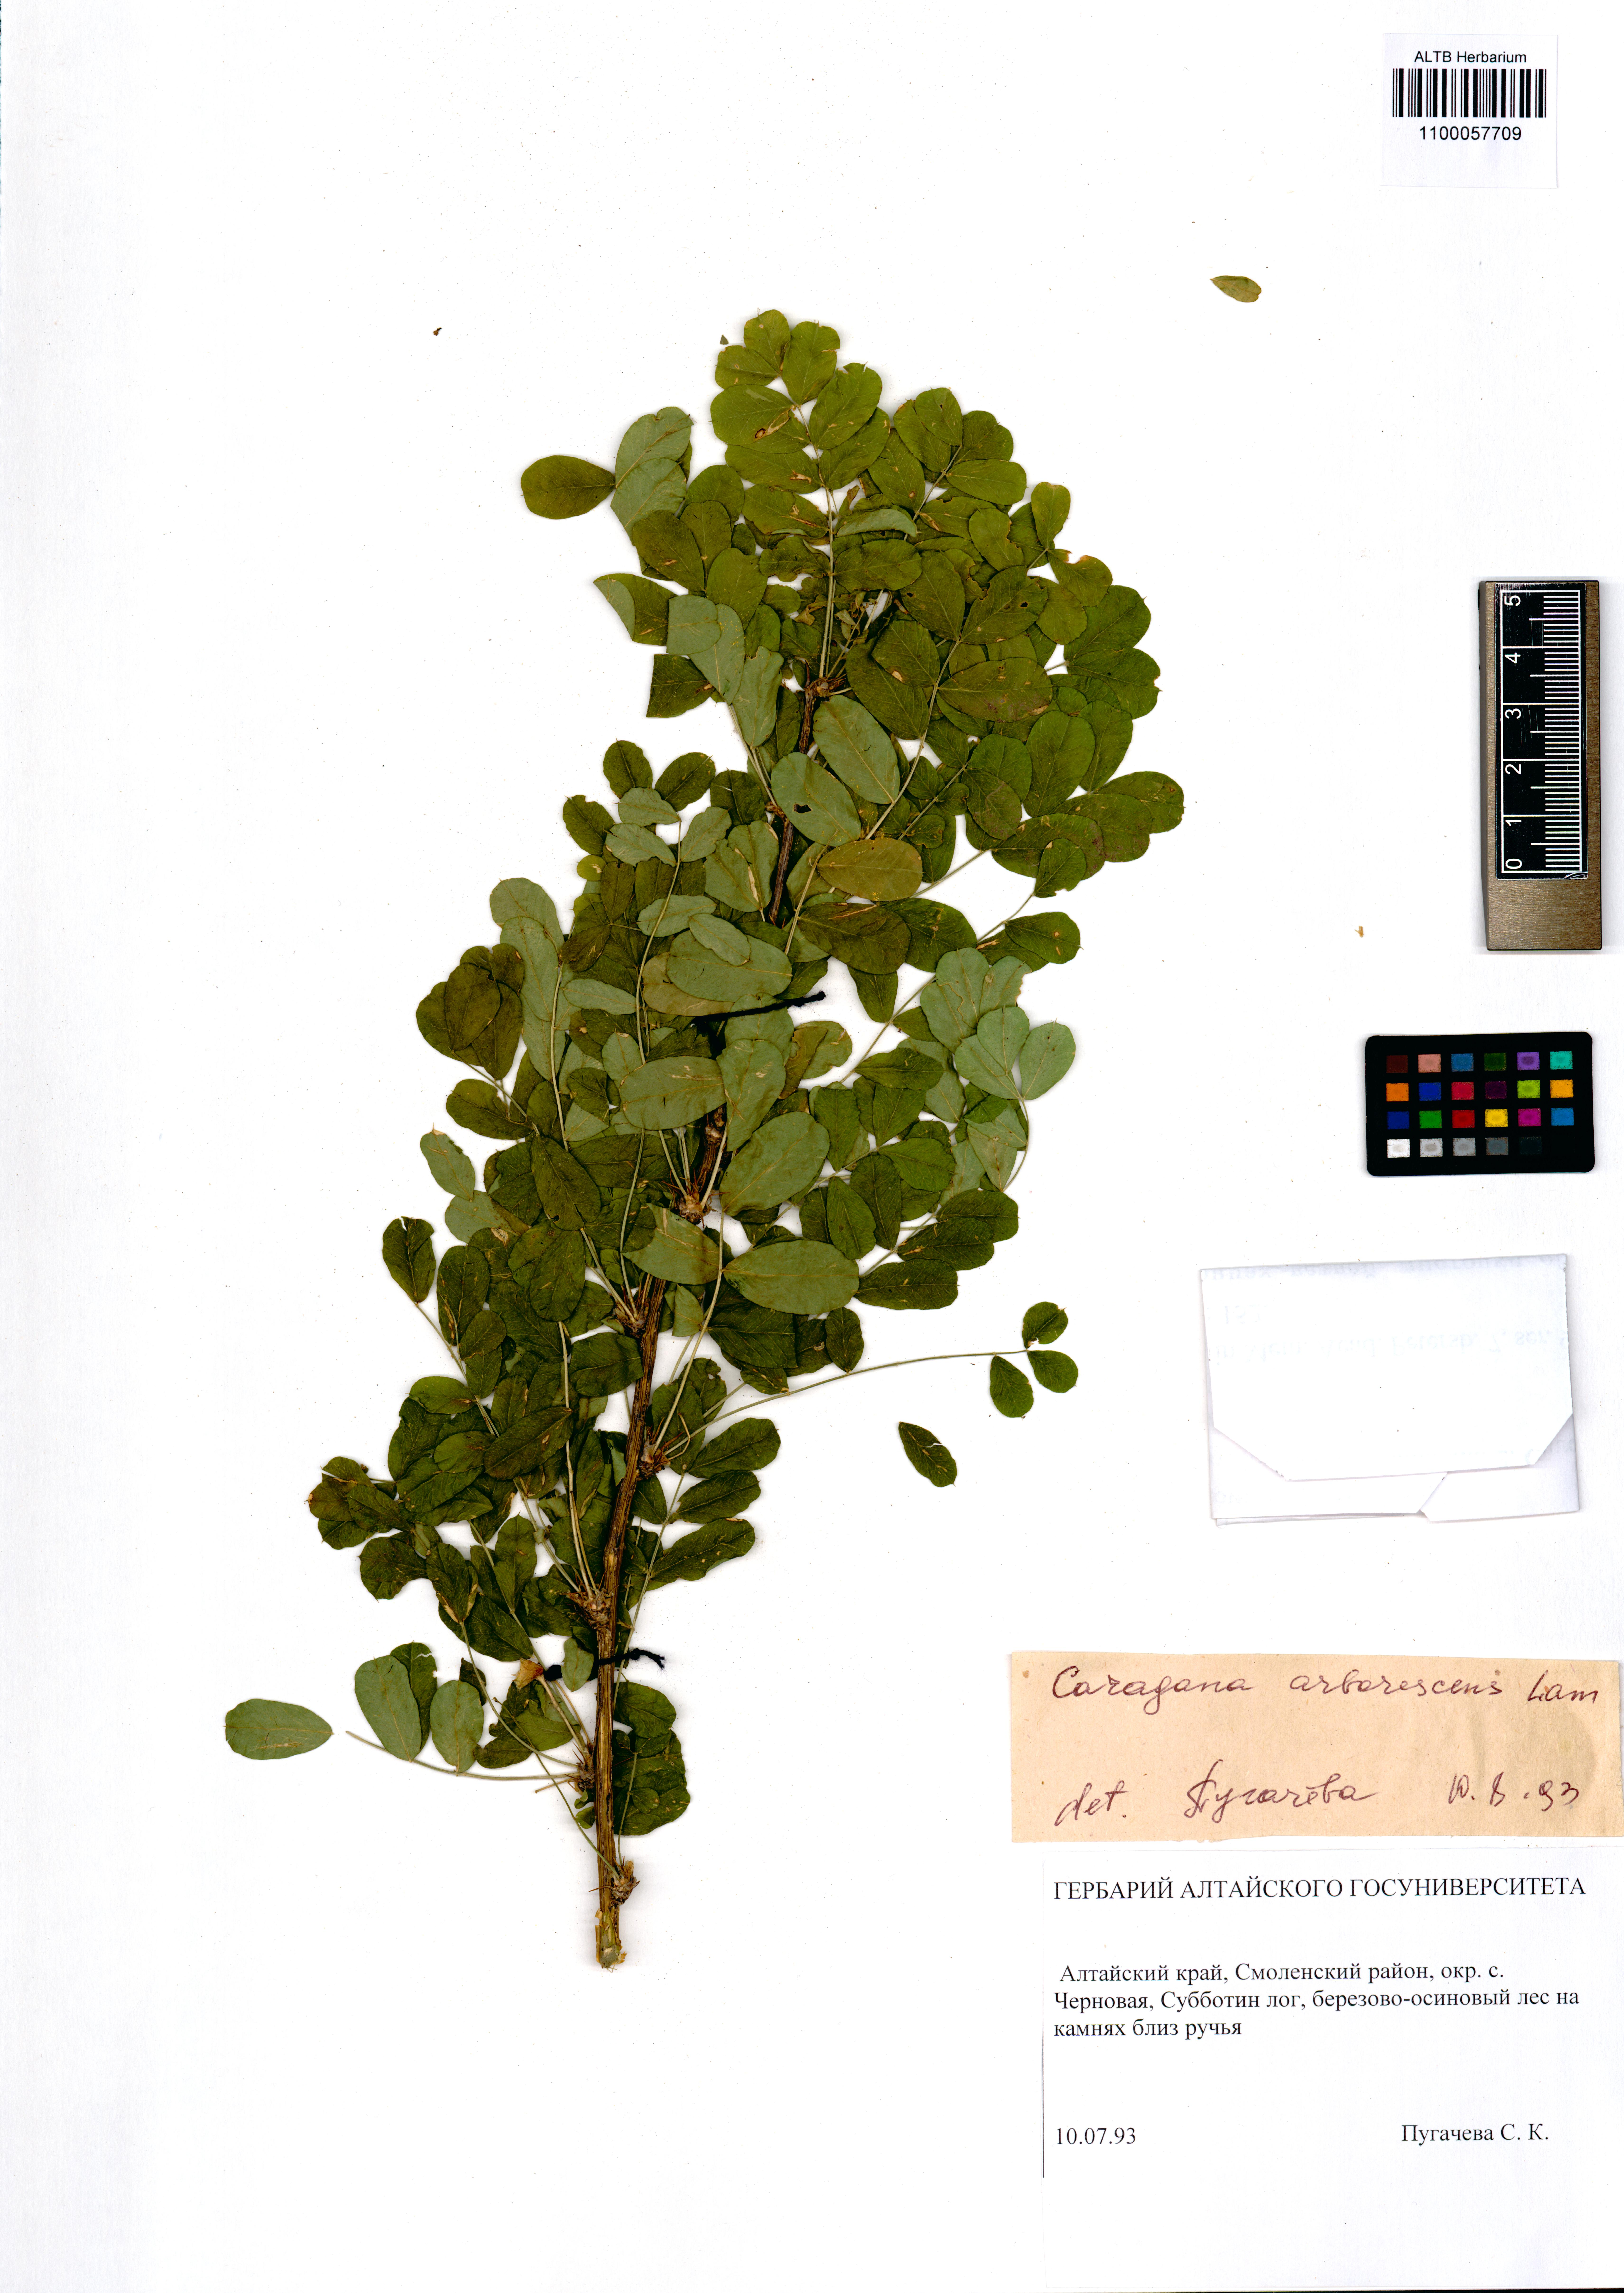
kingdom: Plantae
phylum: Tracheophyta
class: Magnoliopsida
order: Fabales
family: Fabaceae
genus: Caragana
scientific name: Caragana arborescens
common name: Siberian peashrub
